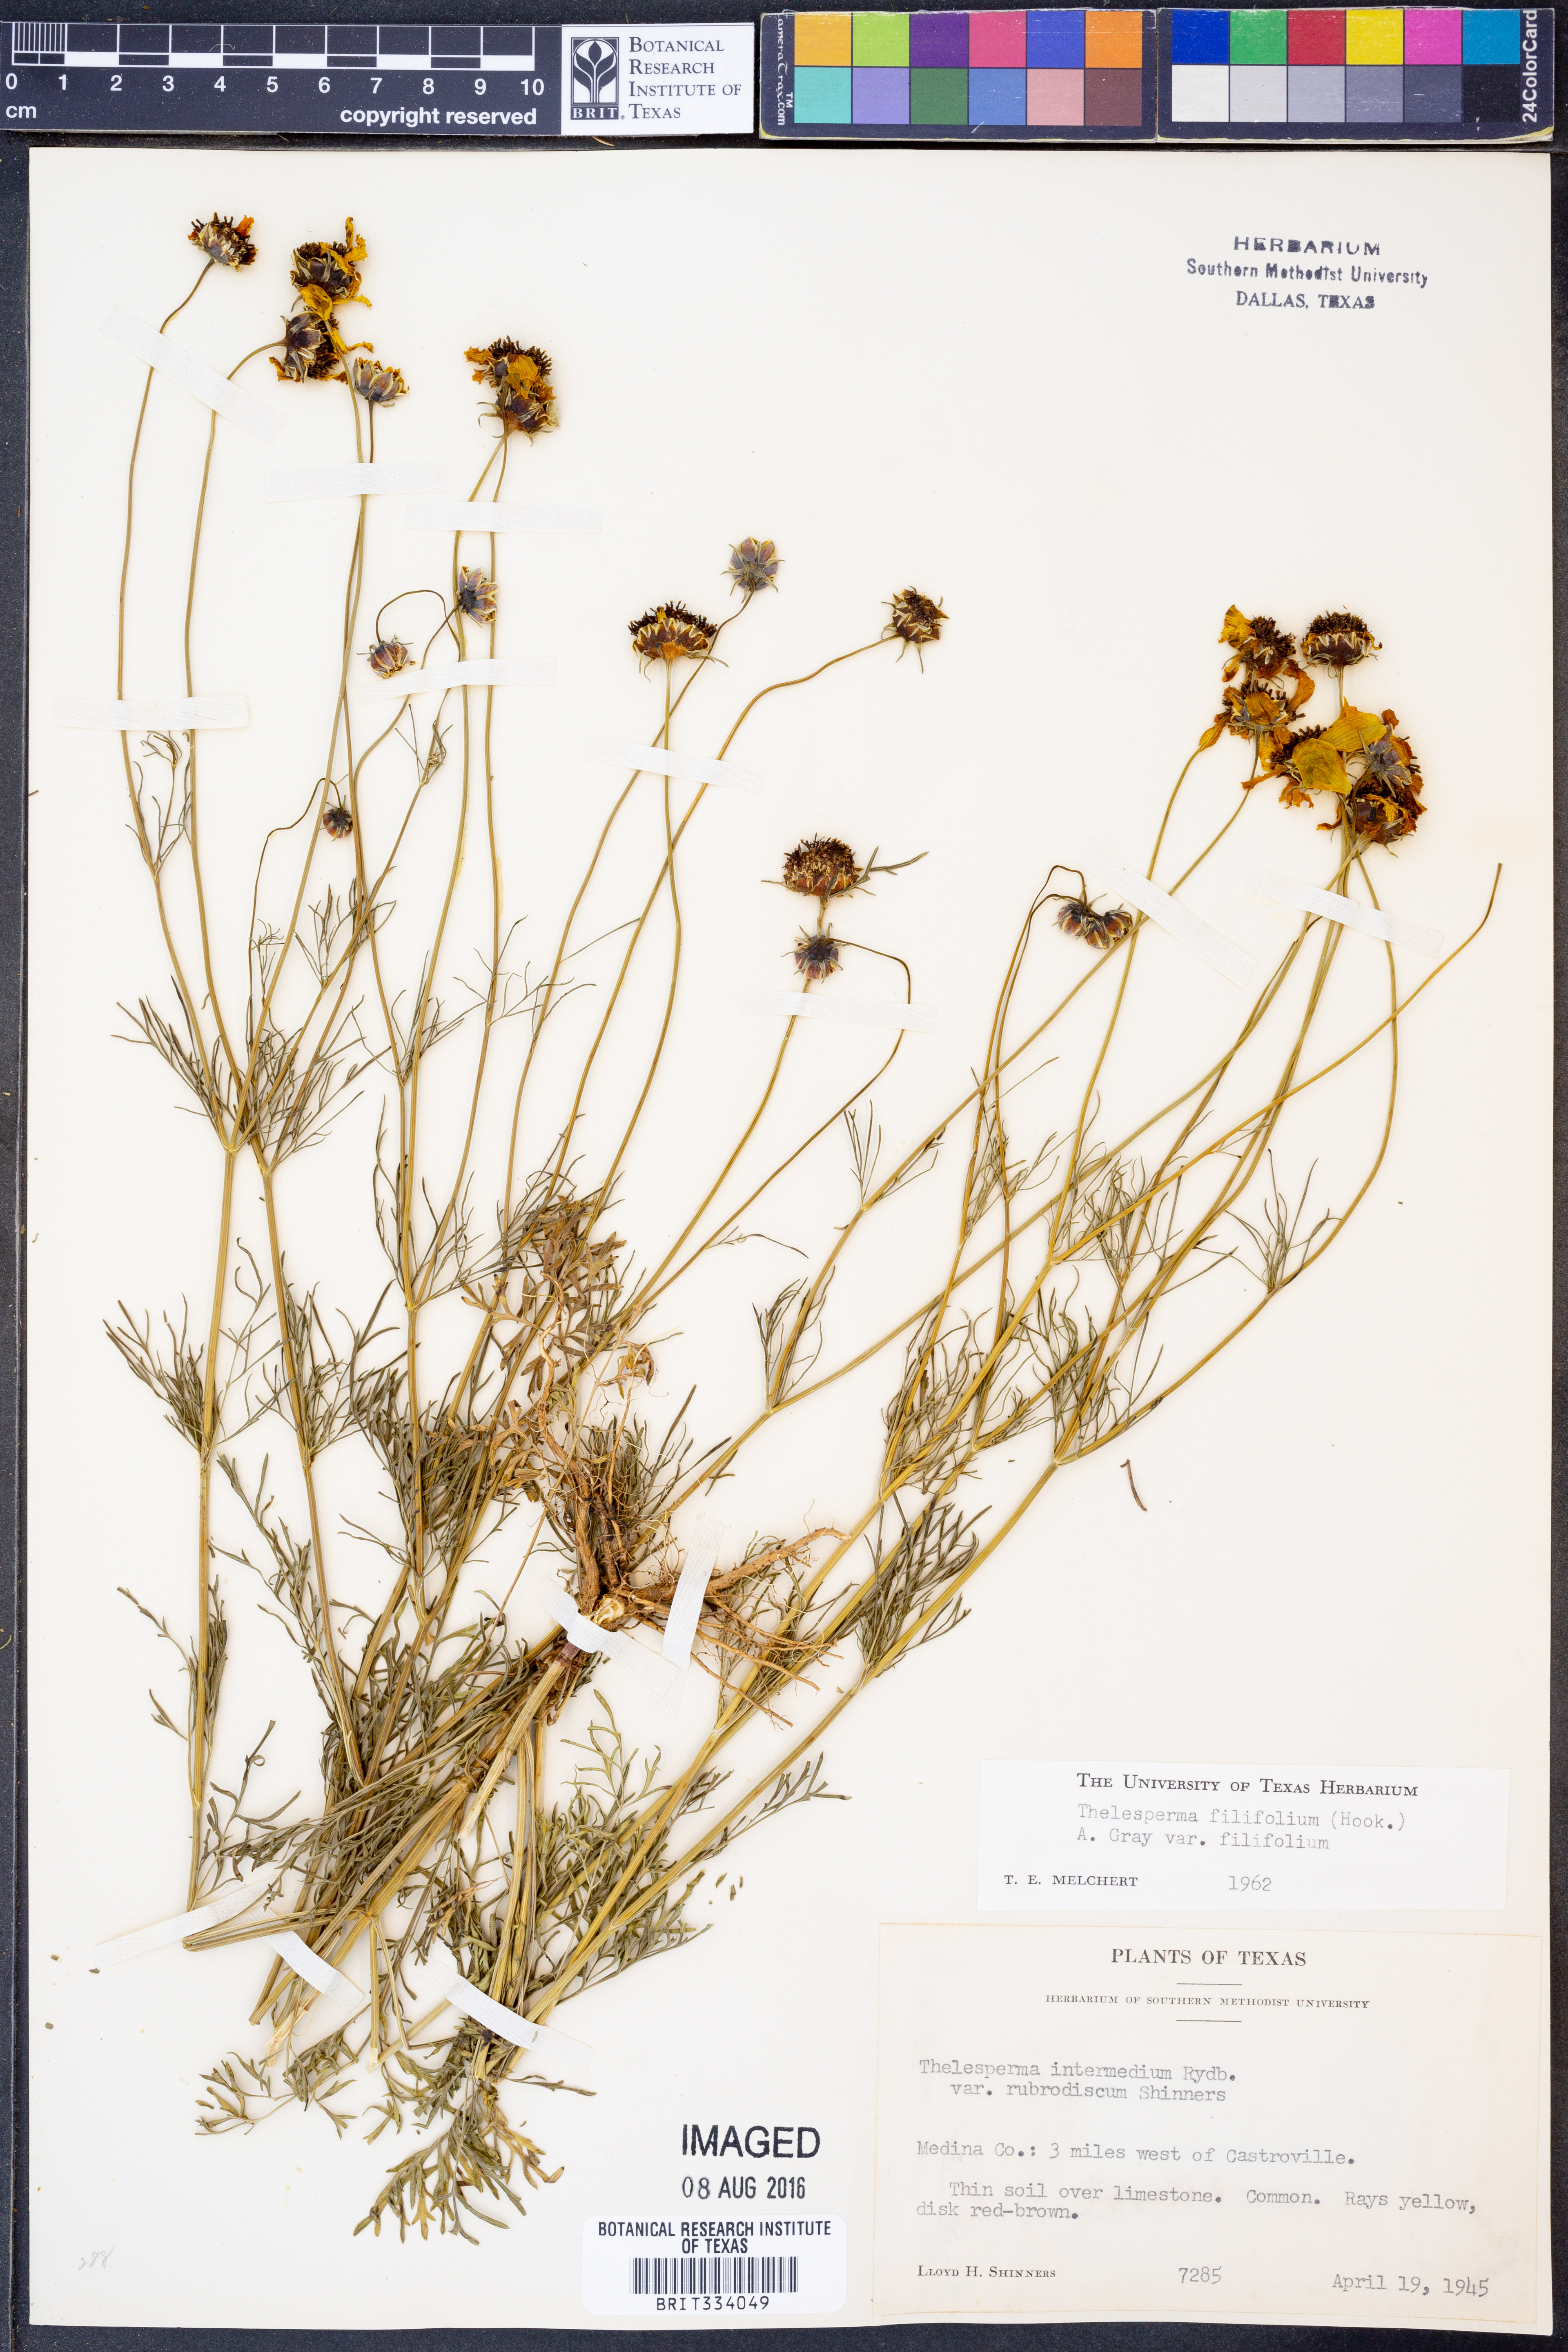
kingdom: Plantae
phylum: Tracheophyta
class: Magnoliopsida
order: Asterales
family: Asteraceae
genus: Thelesperma
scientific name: Thelesperma filifolium
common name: Stiff greenthread
